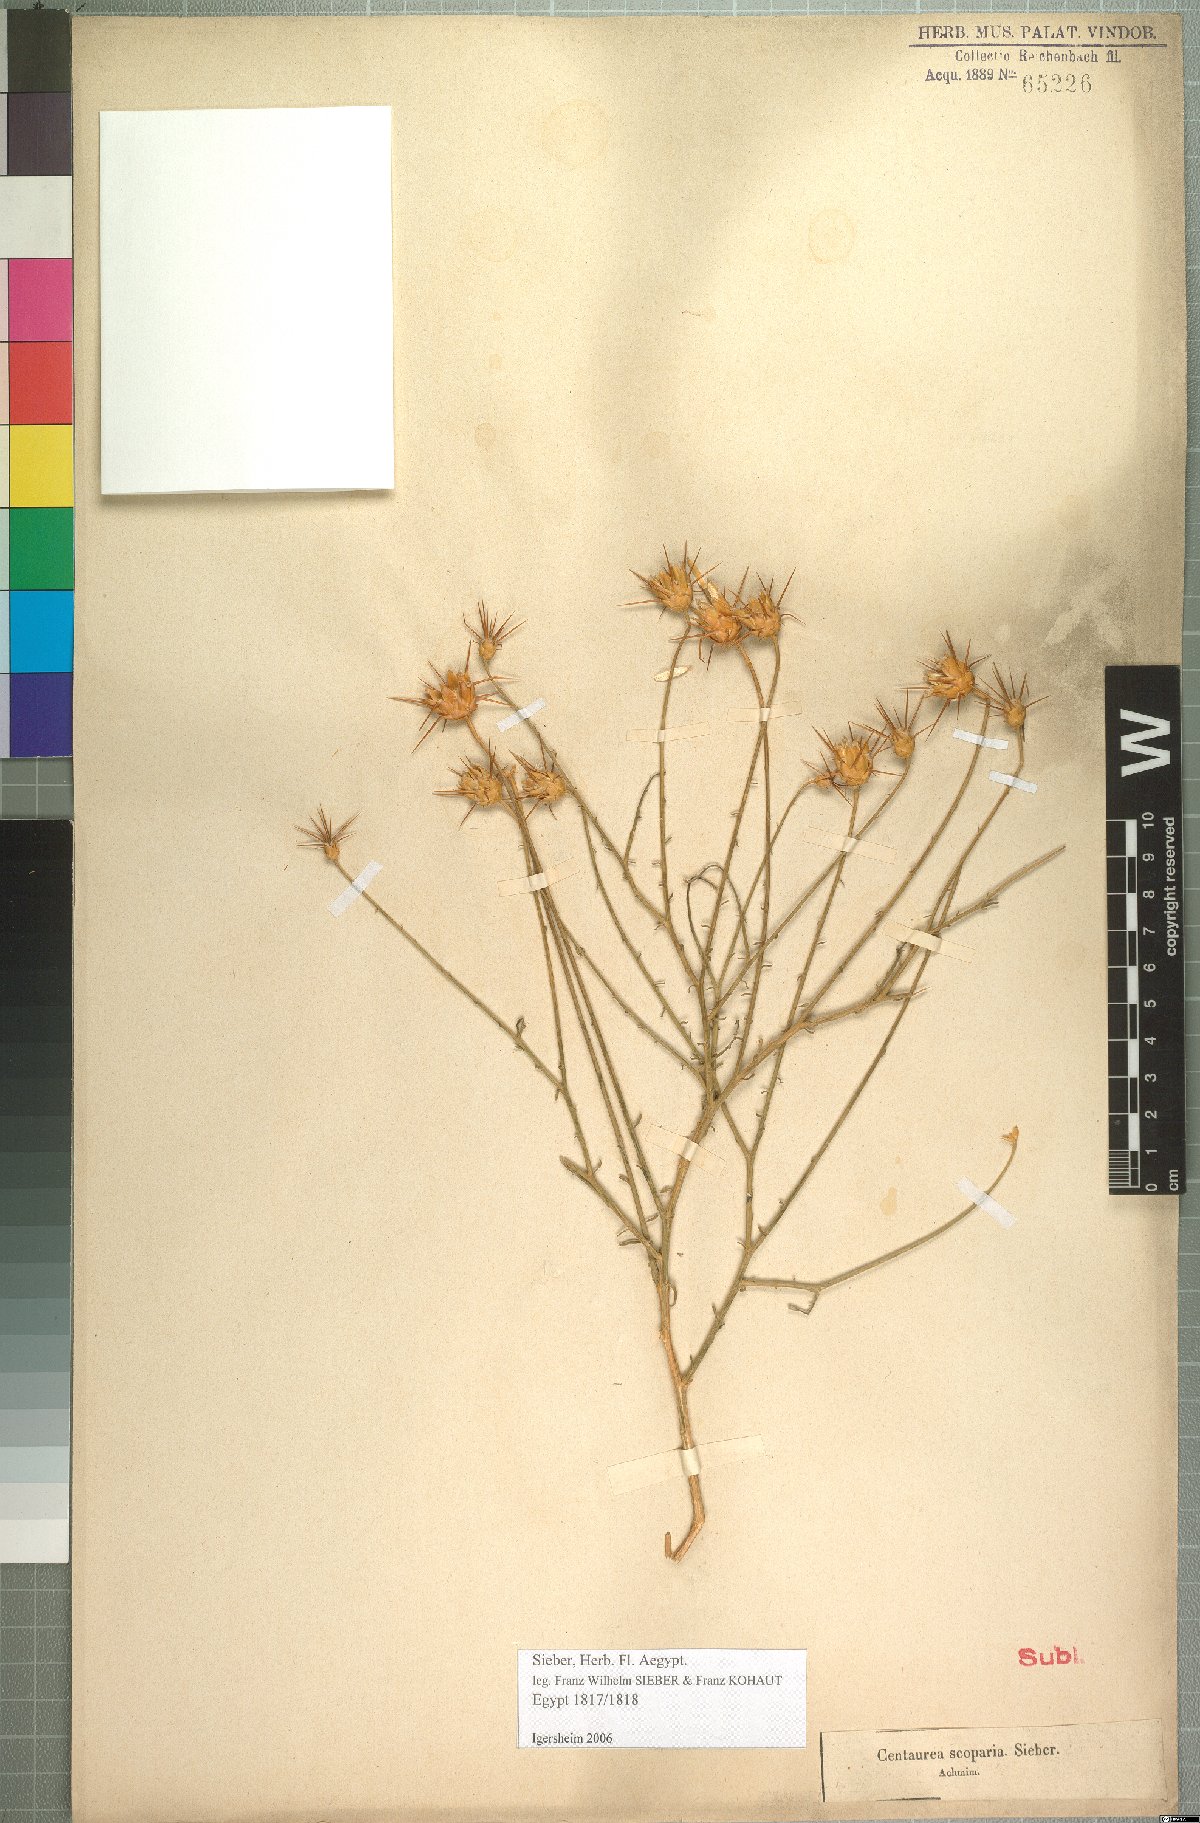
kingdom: Plantae
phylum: Tracheophyta
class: Magnoliopsida
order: Asterales
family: Asteraceae
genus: Centaurea
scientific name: Centaurea scoparia
